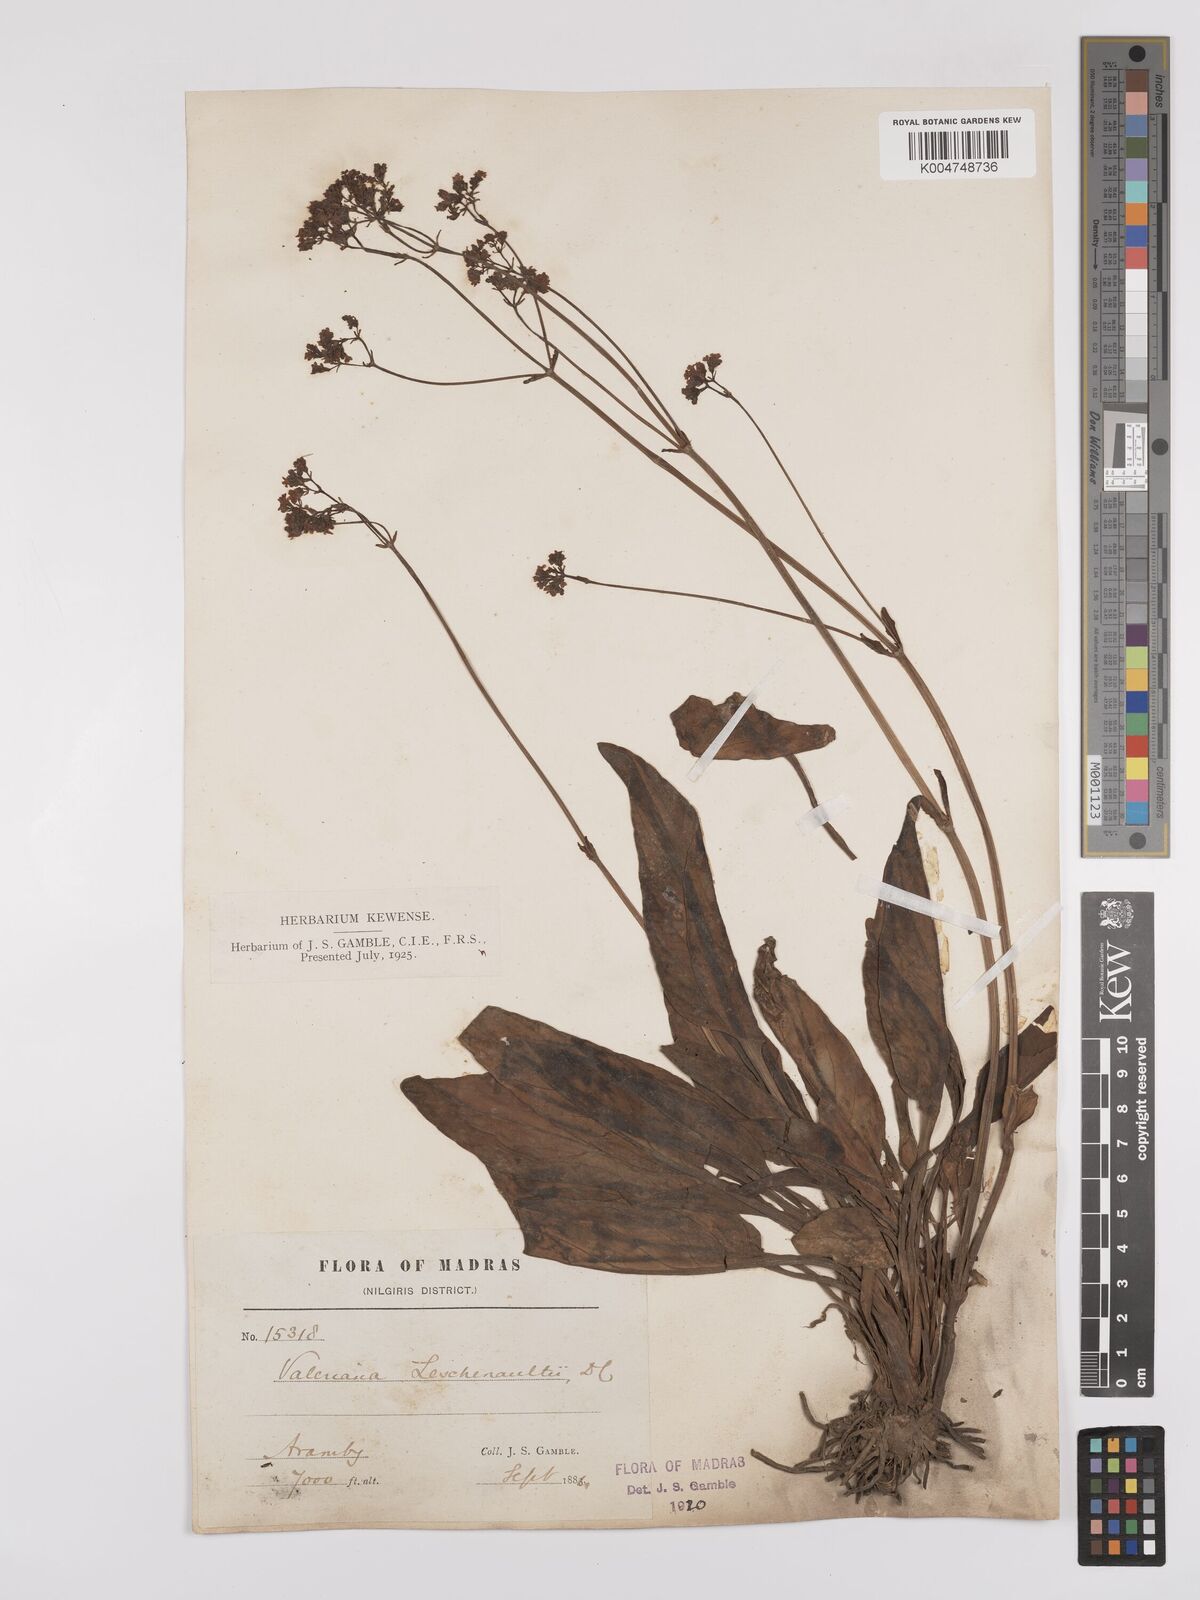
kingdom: Plantae
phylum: Tracheophyta
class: Magnoliopsida
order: Dipsacales
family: Caprifoliaceae
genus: Valeriana
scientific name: Valeriana leschenaultii
